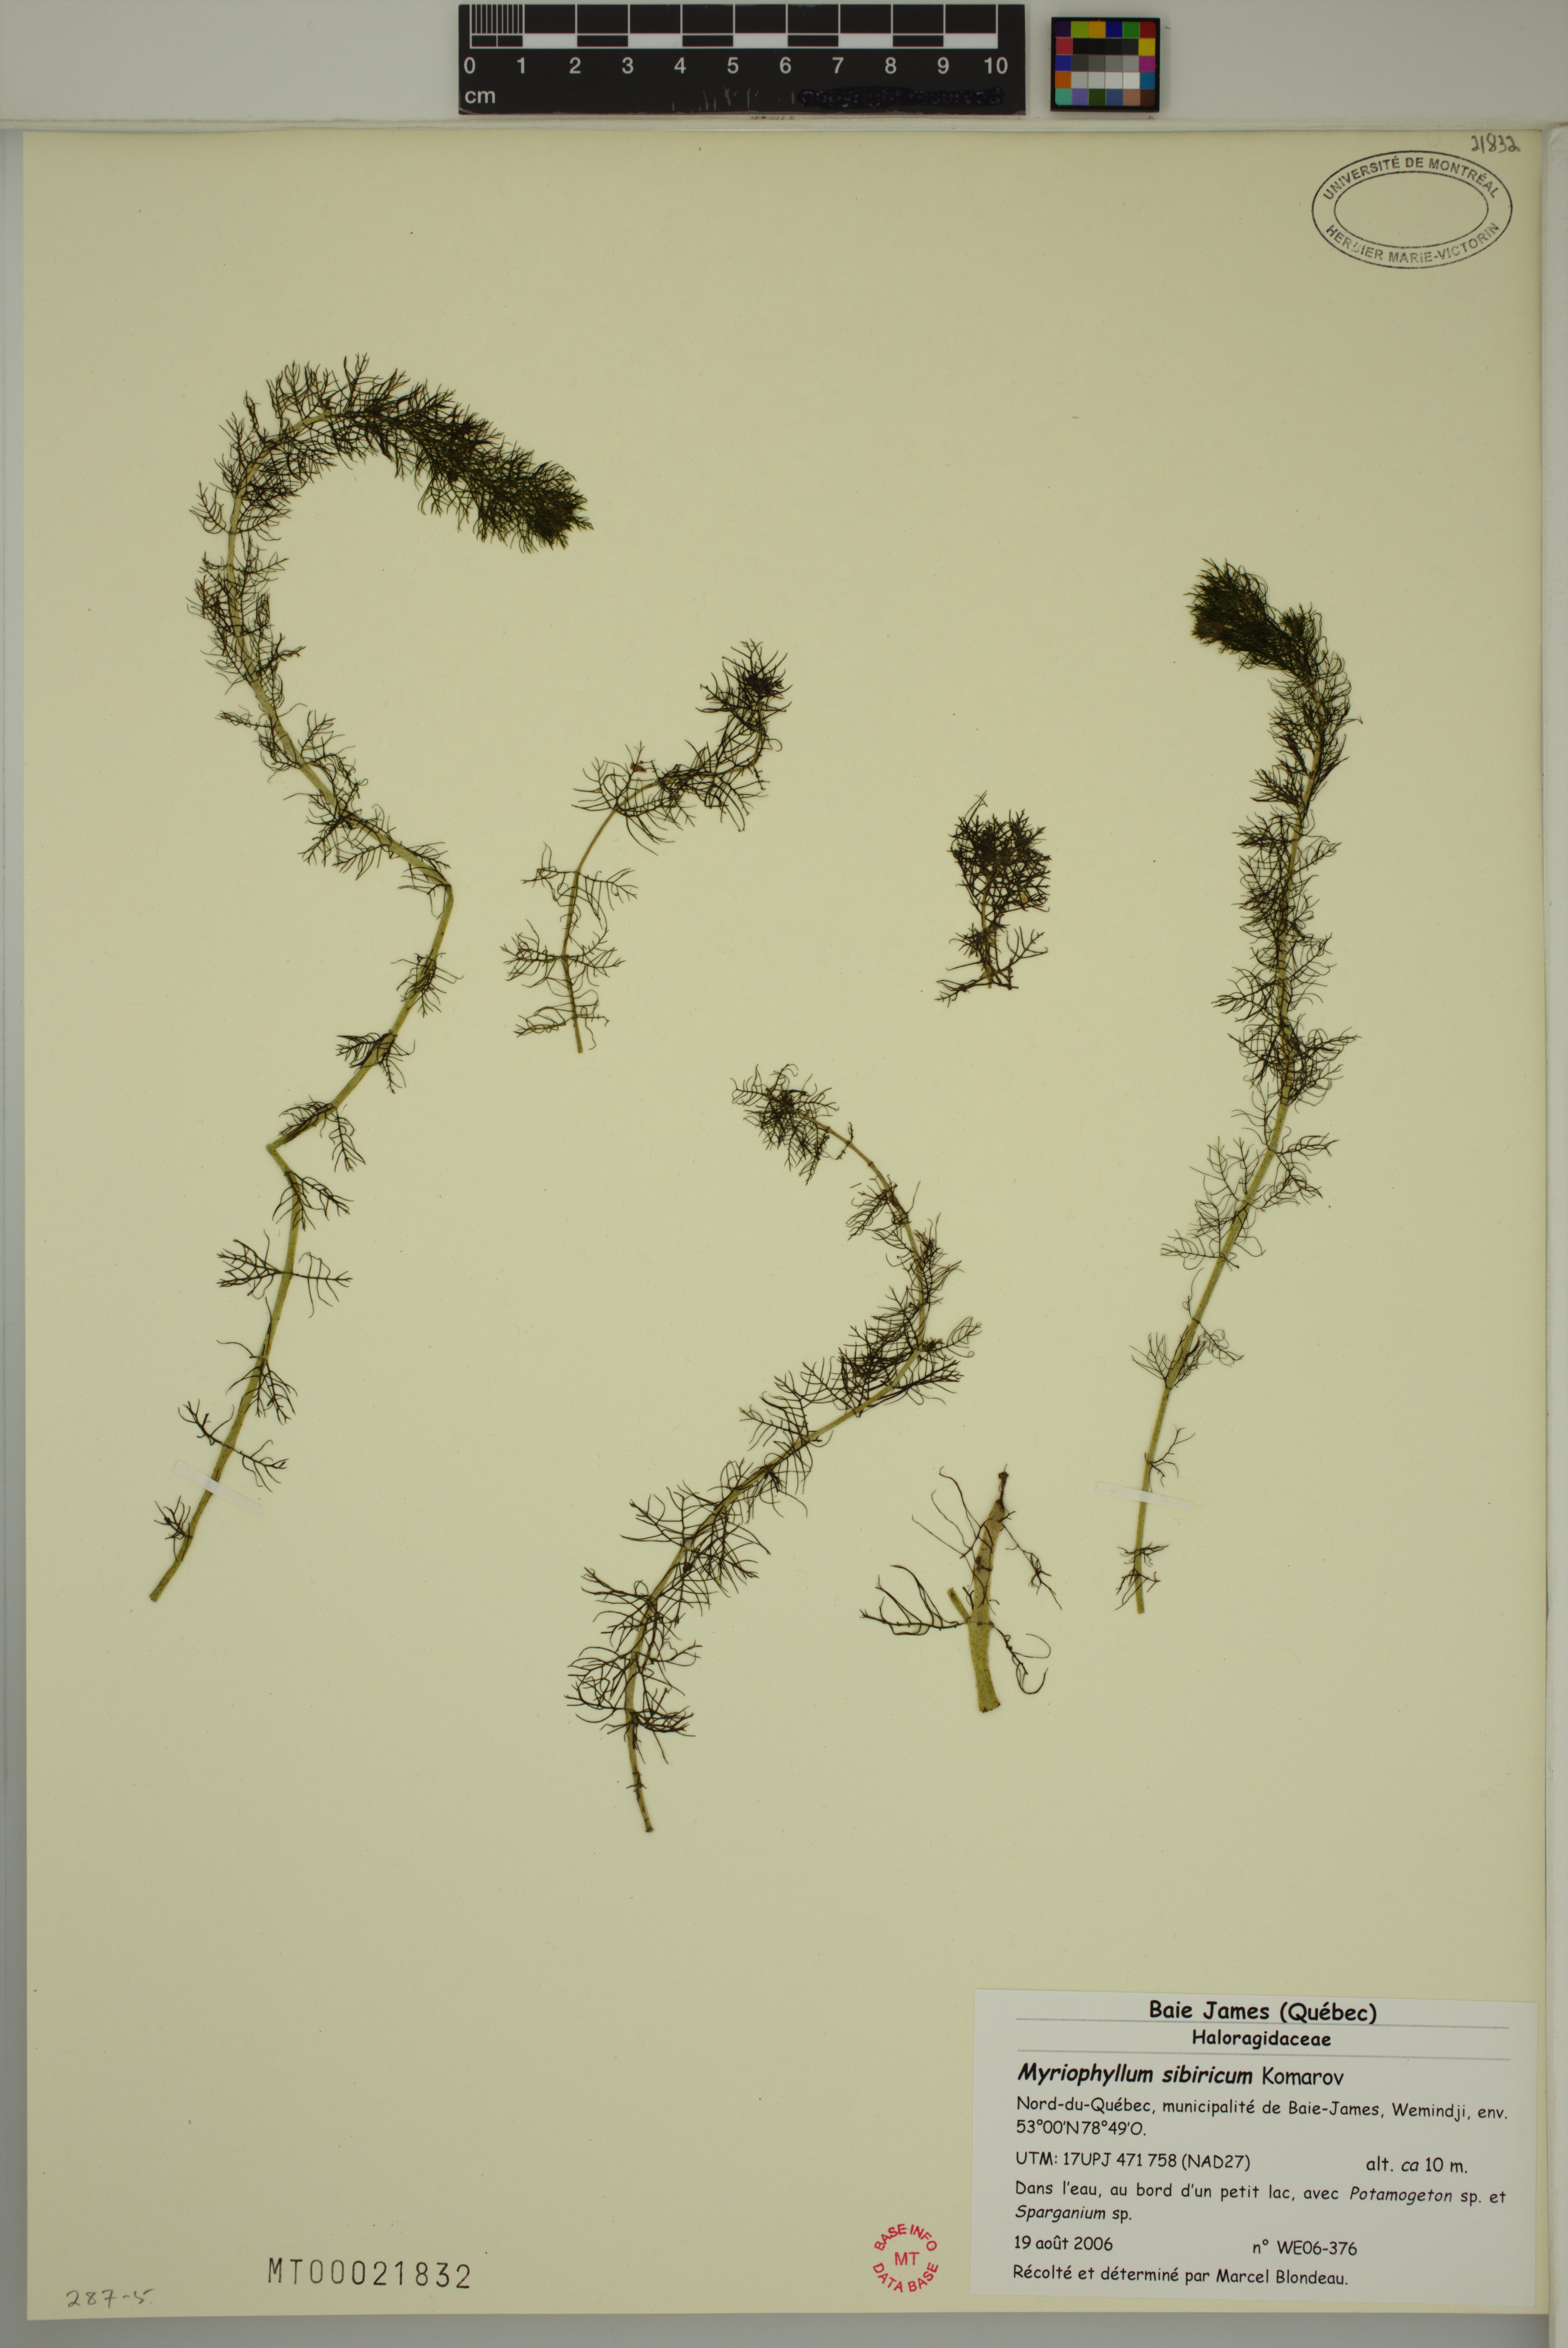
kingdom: Plantae
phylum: Tracheophyta
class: Magnoliopsida
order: Saxifragales
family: Haloragaceae
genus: Myriophyllum
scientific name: Myriophyllum sibiricum
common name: Siberian water-milfoil
